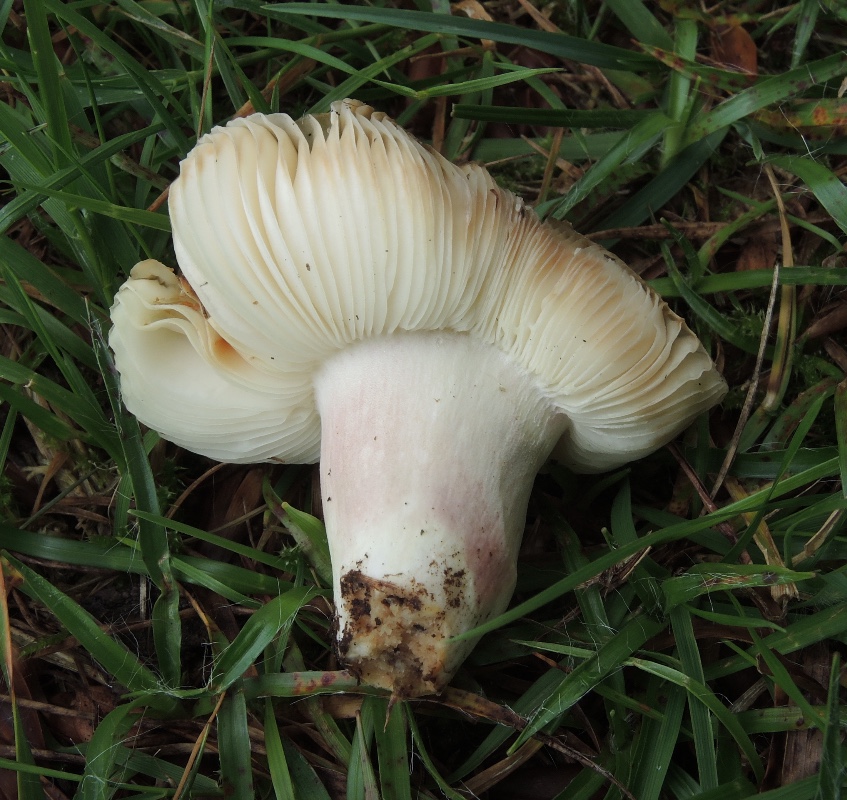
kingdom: Fungi
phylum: Basidiomycota
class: Agaricomycetes
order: Russulales
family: Russulaceae
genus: Russula
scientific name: Russula violeipes
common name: ferskengul skørhat
